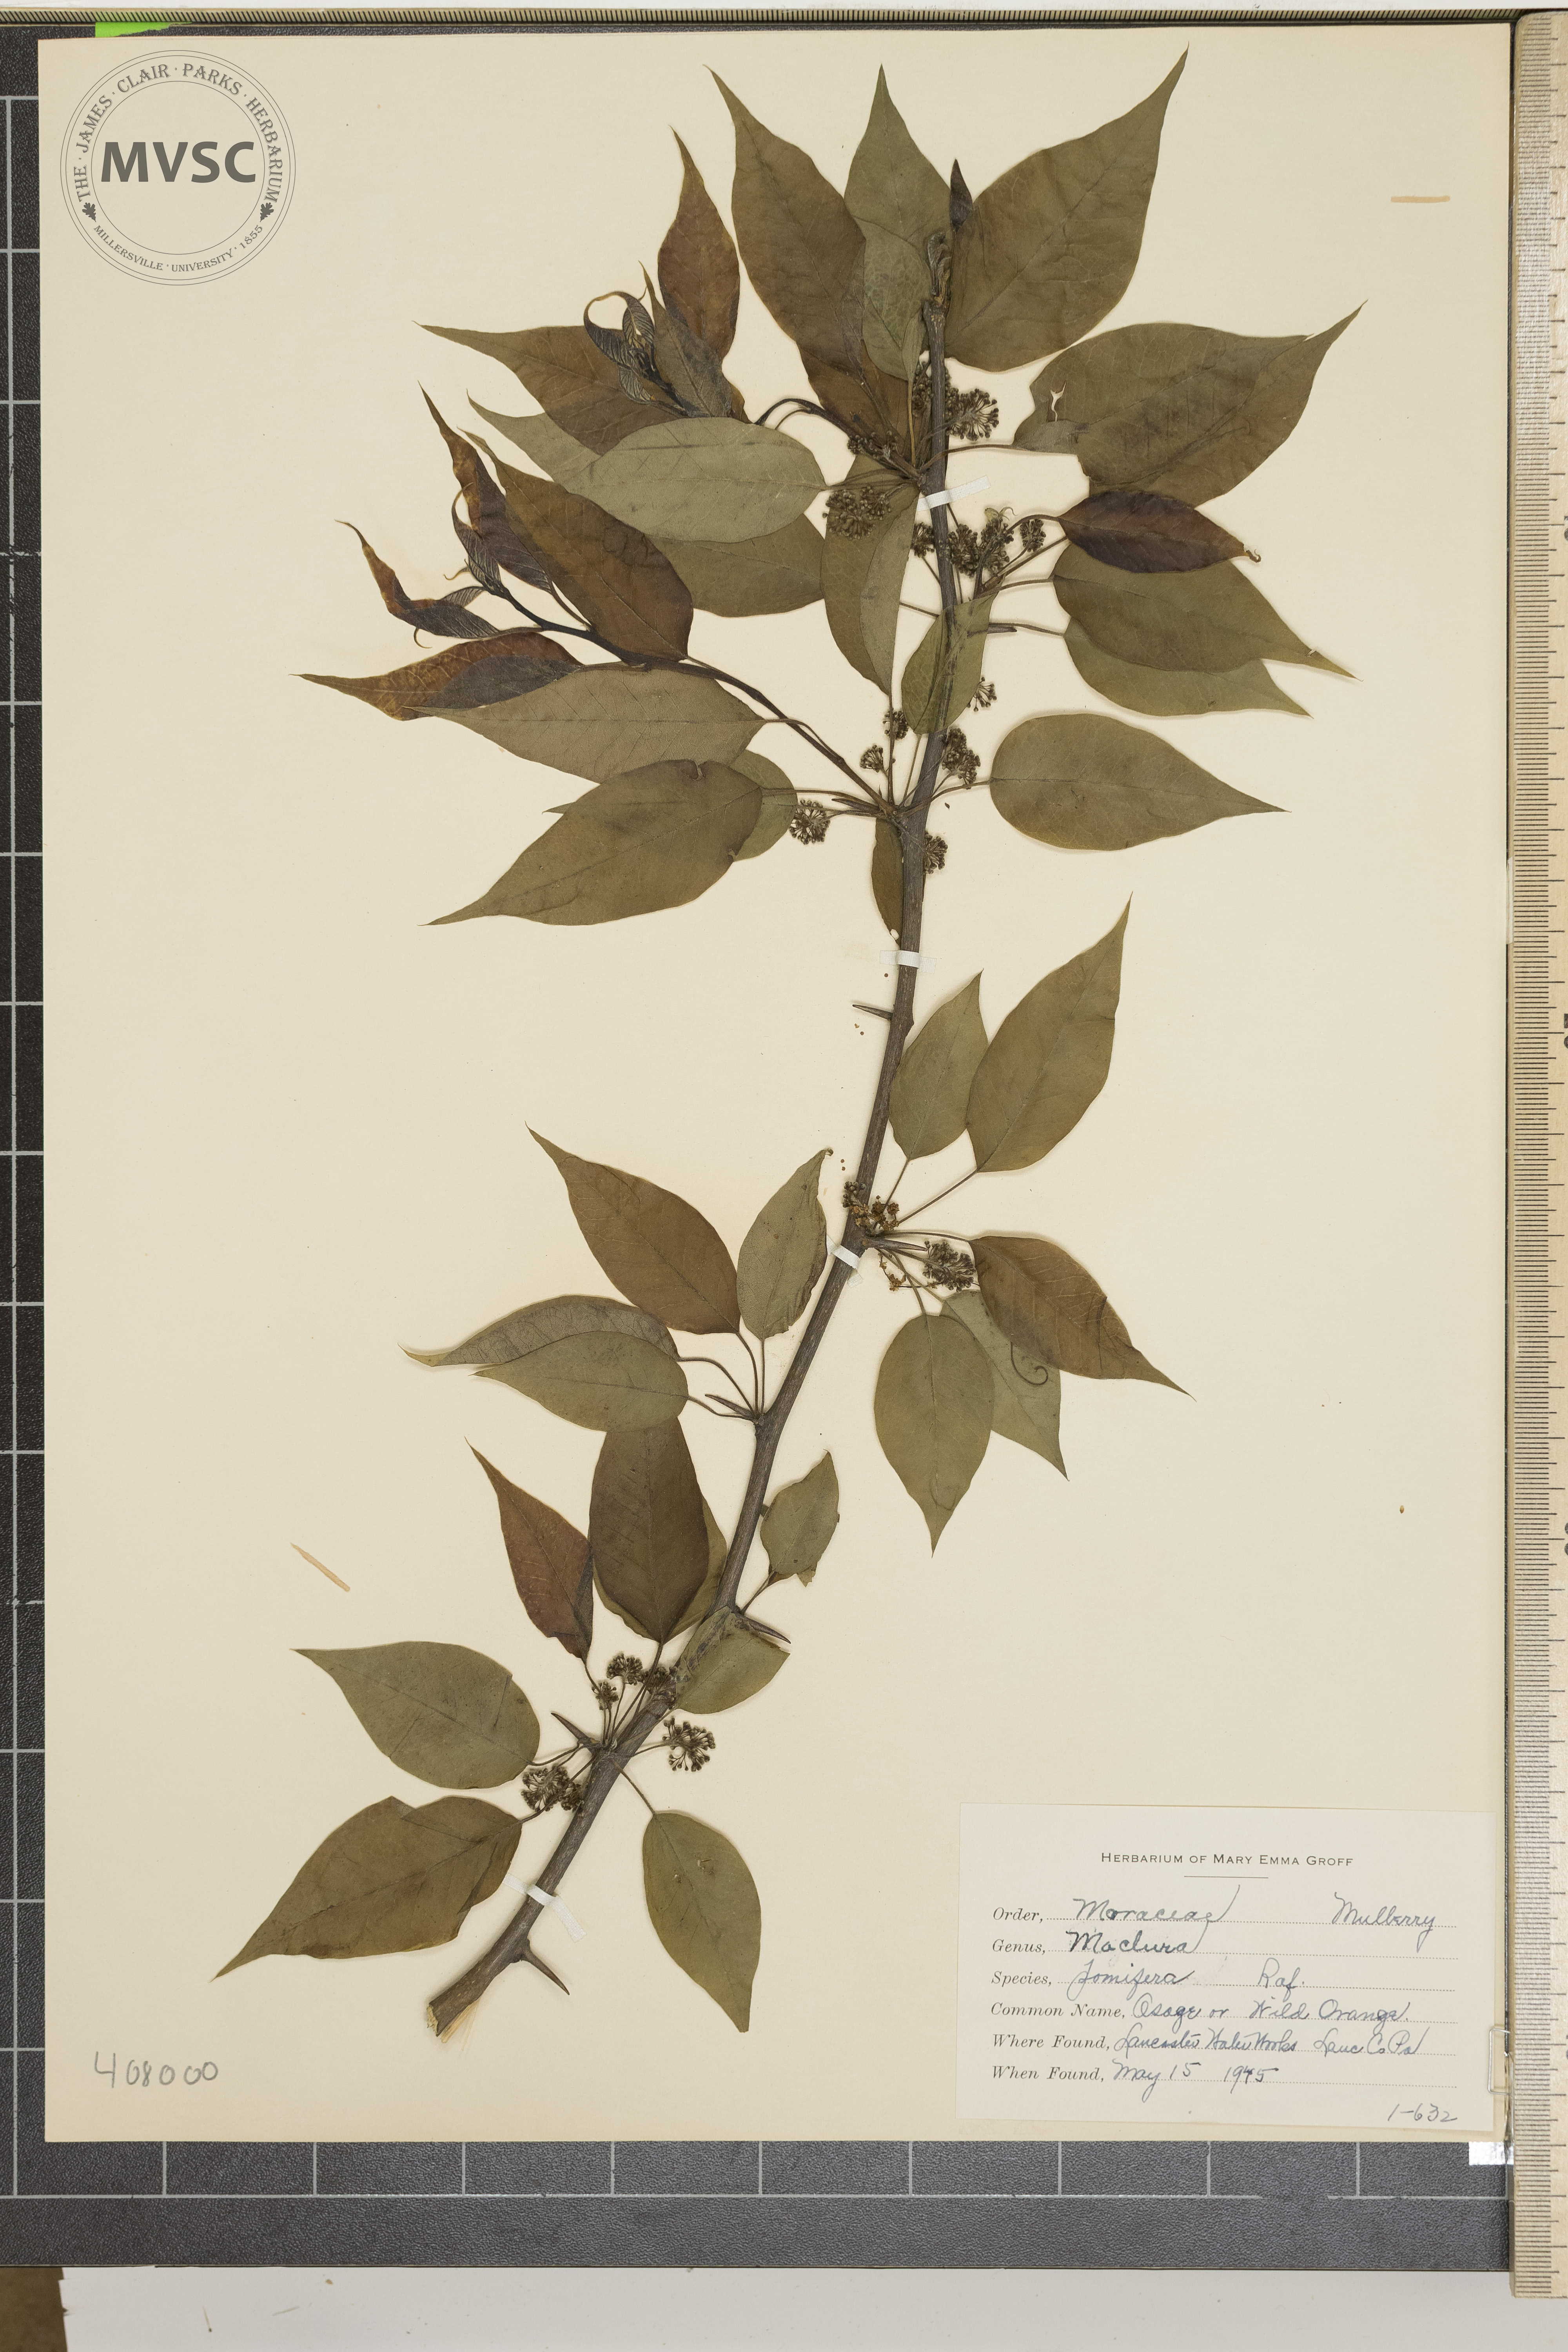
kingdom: Plantae
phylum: Tracheophyta
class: Magnoliopsida
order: Rosales
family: Moraceae
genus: Maclura
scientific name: Maclura pomifera
